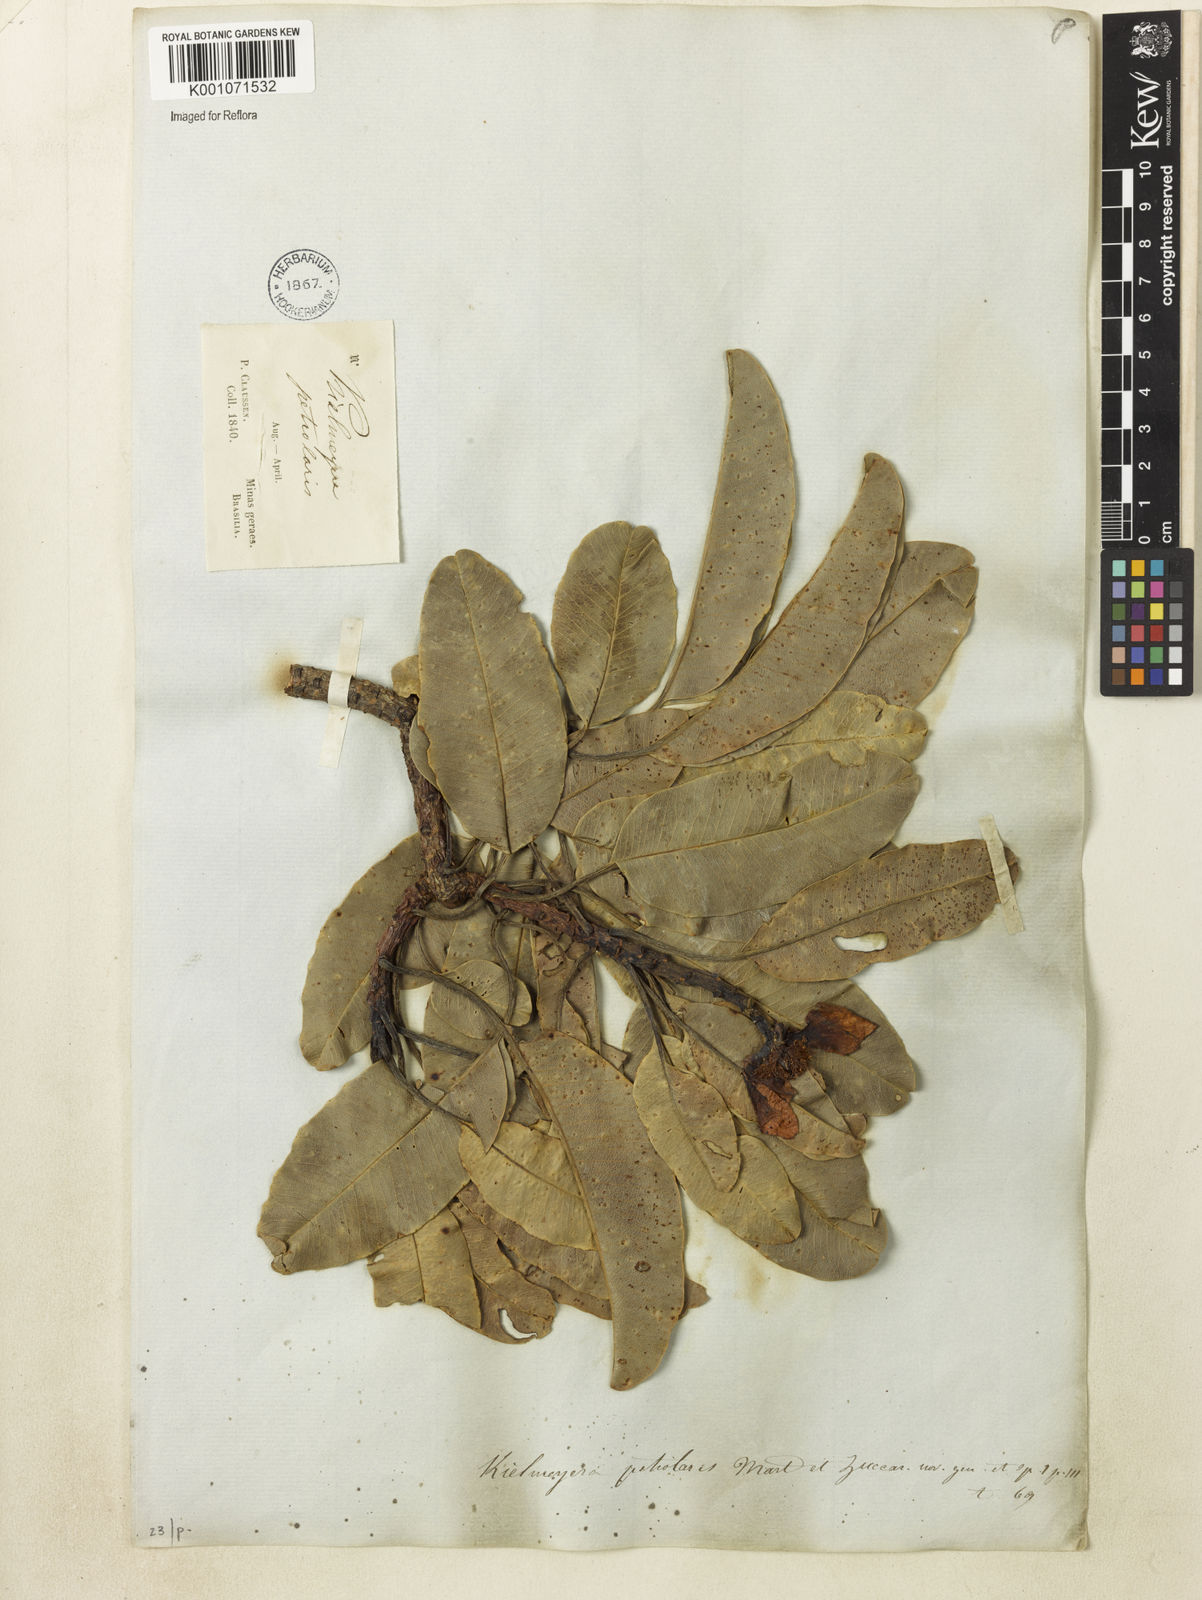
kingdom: Plantae
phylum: Tracheophyta
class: Magnoliopsida
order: Malpighiales
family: Calophyllaceae
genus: Kielmeyera
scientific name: Kielmeyera petiolaris
